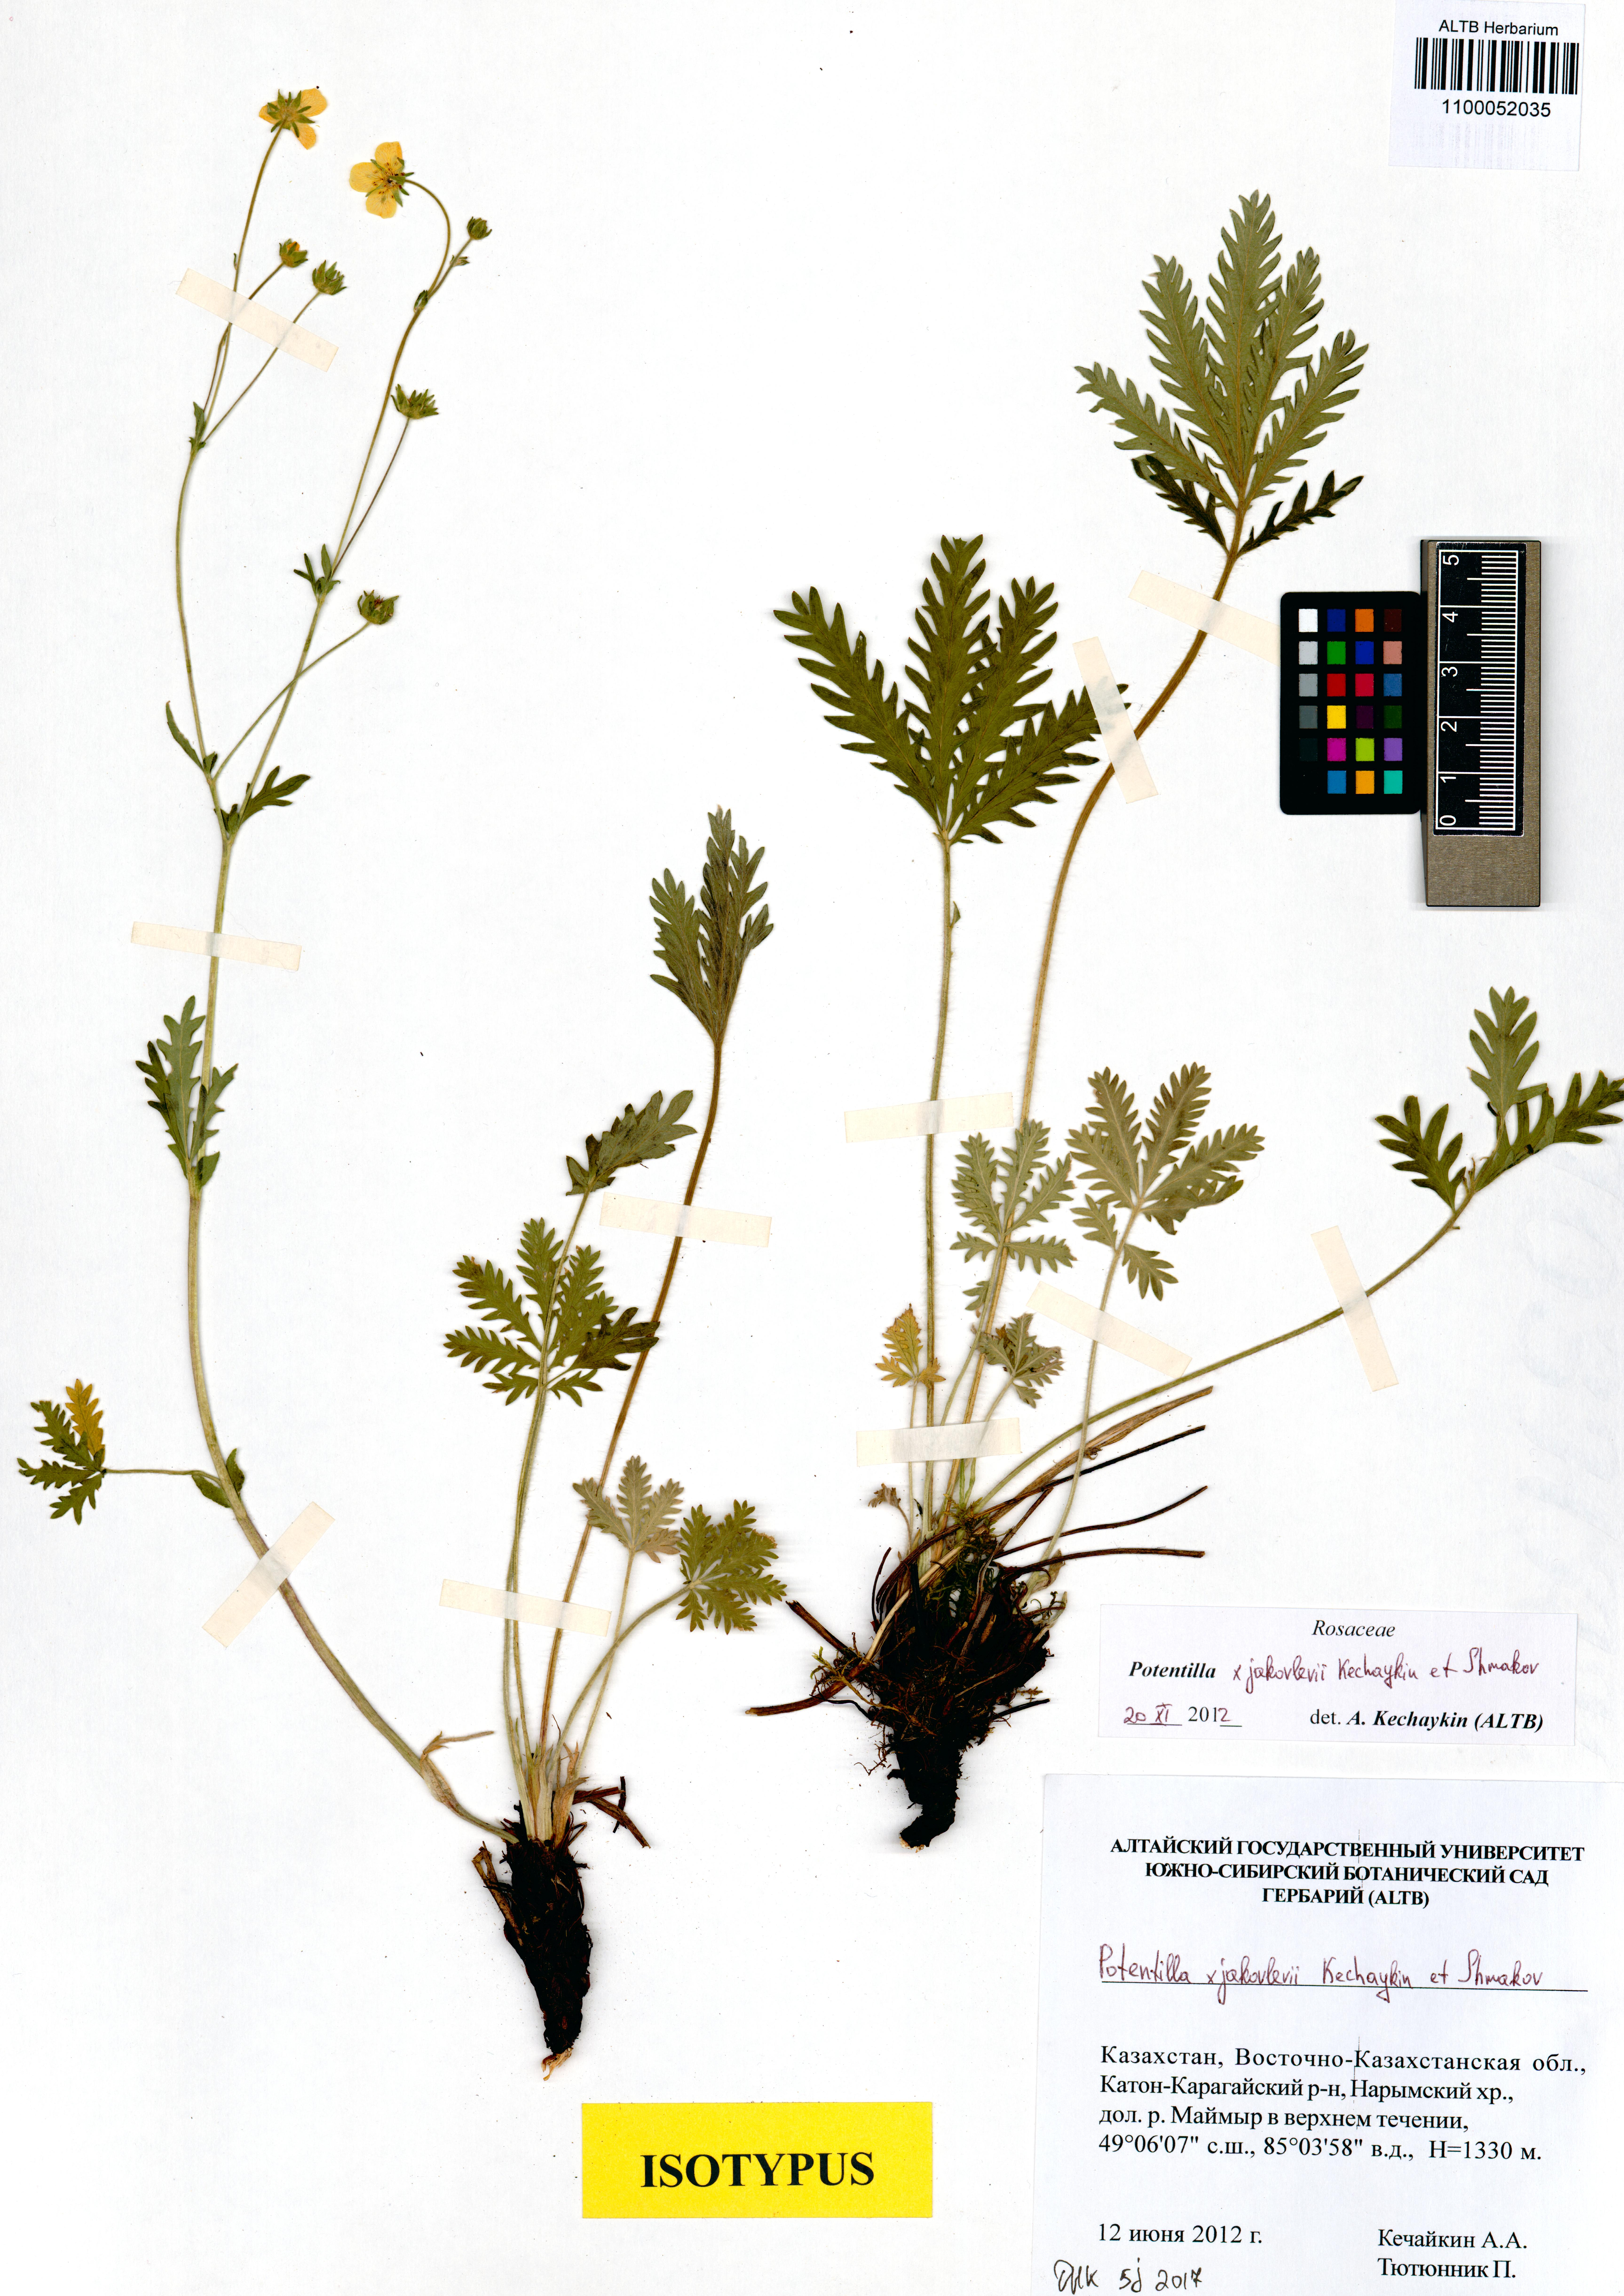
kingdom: Plantae
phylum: Tracheophyta
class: Magnoliopsida
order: Rosales
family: Rosaceae
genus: Potentilla
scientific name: Potentilla jakovlevii
